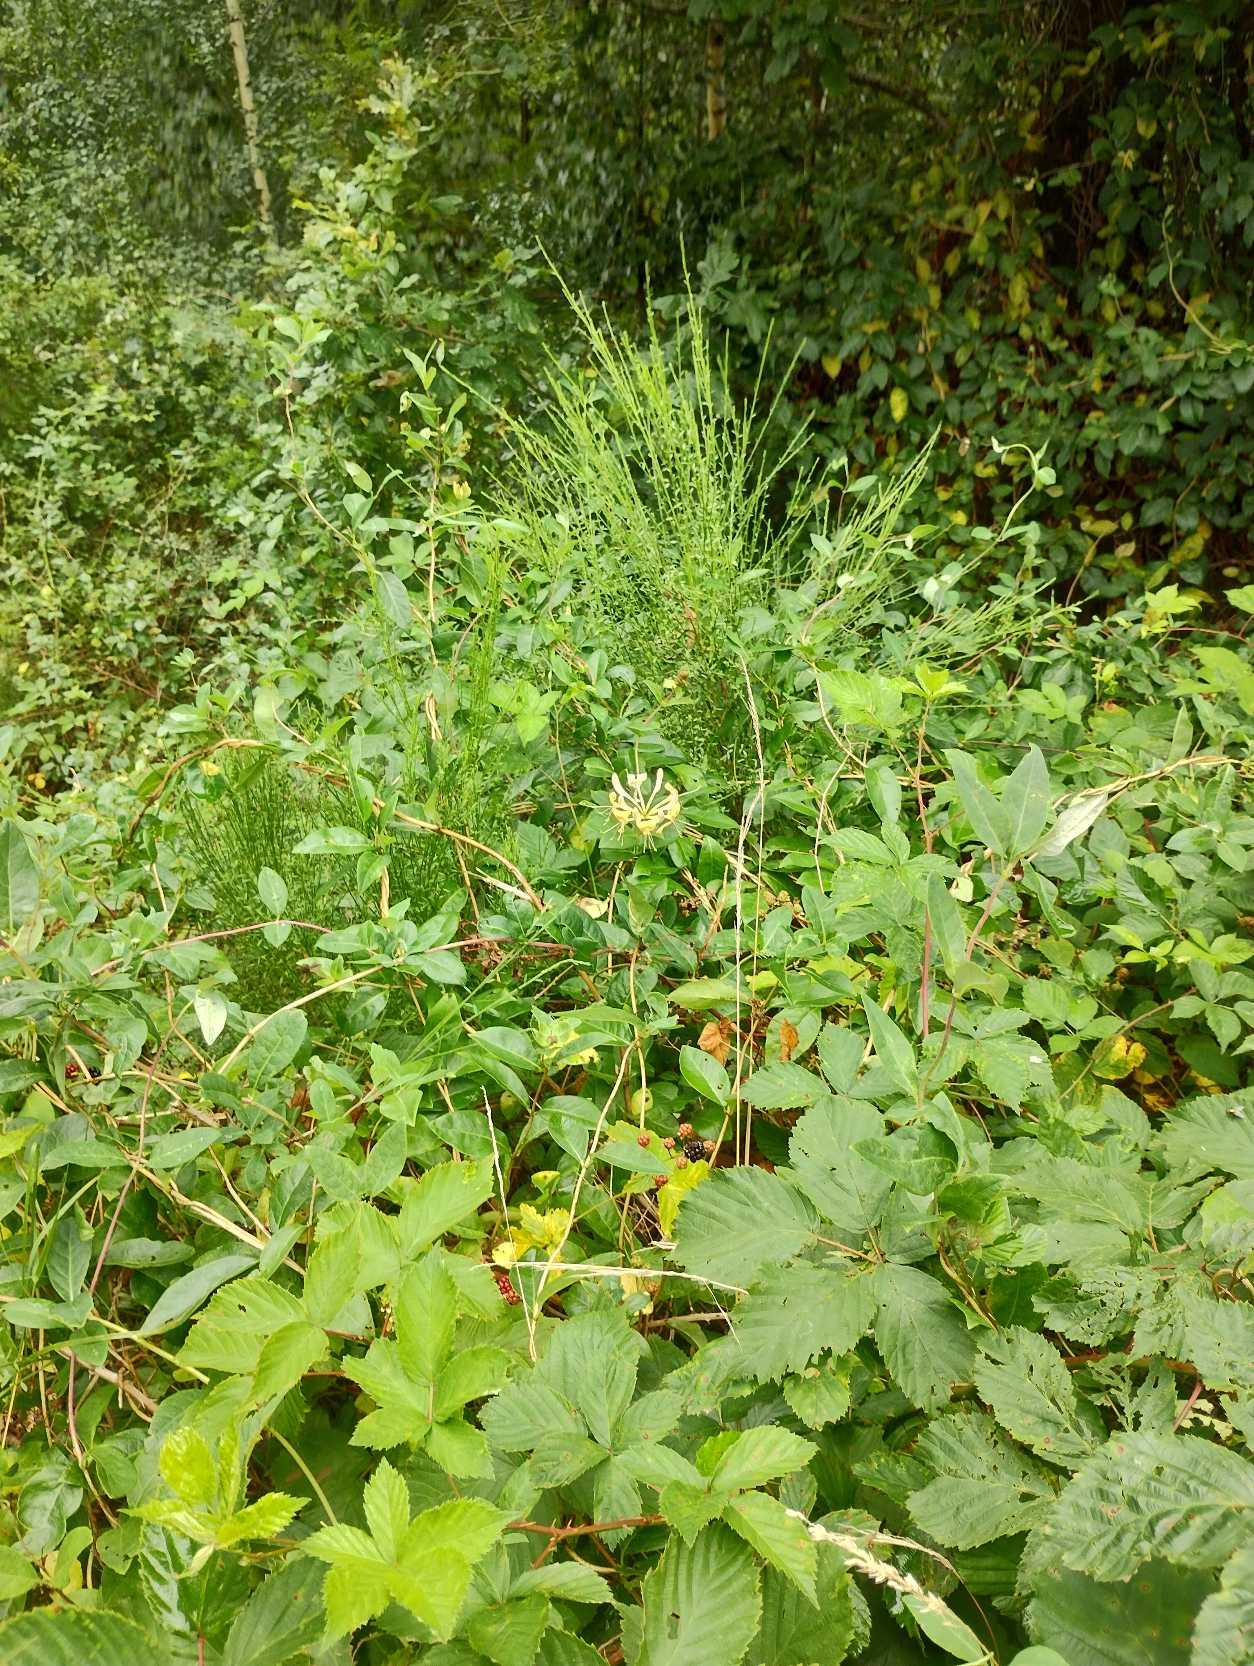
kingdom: Plantae
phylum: Tracheophyta
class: Magnoliopsida
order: Dipsacales
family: Caprifoliaceae
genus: Lonicera
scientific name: Lonicera periclymenum
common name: Almindelig gedeblad
